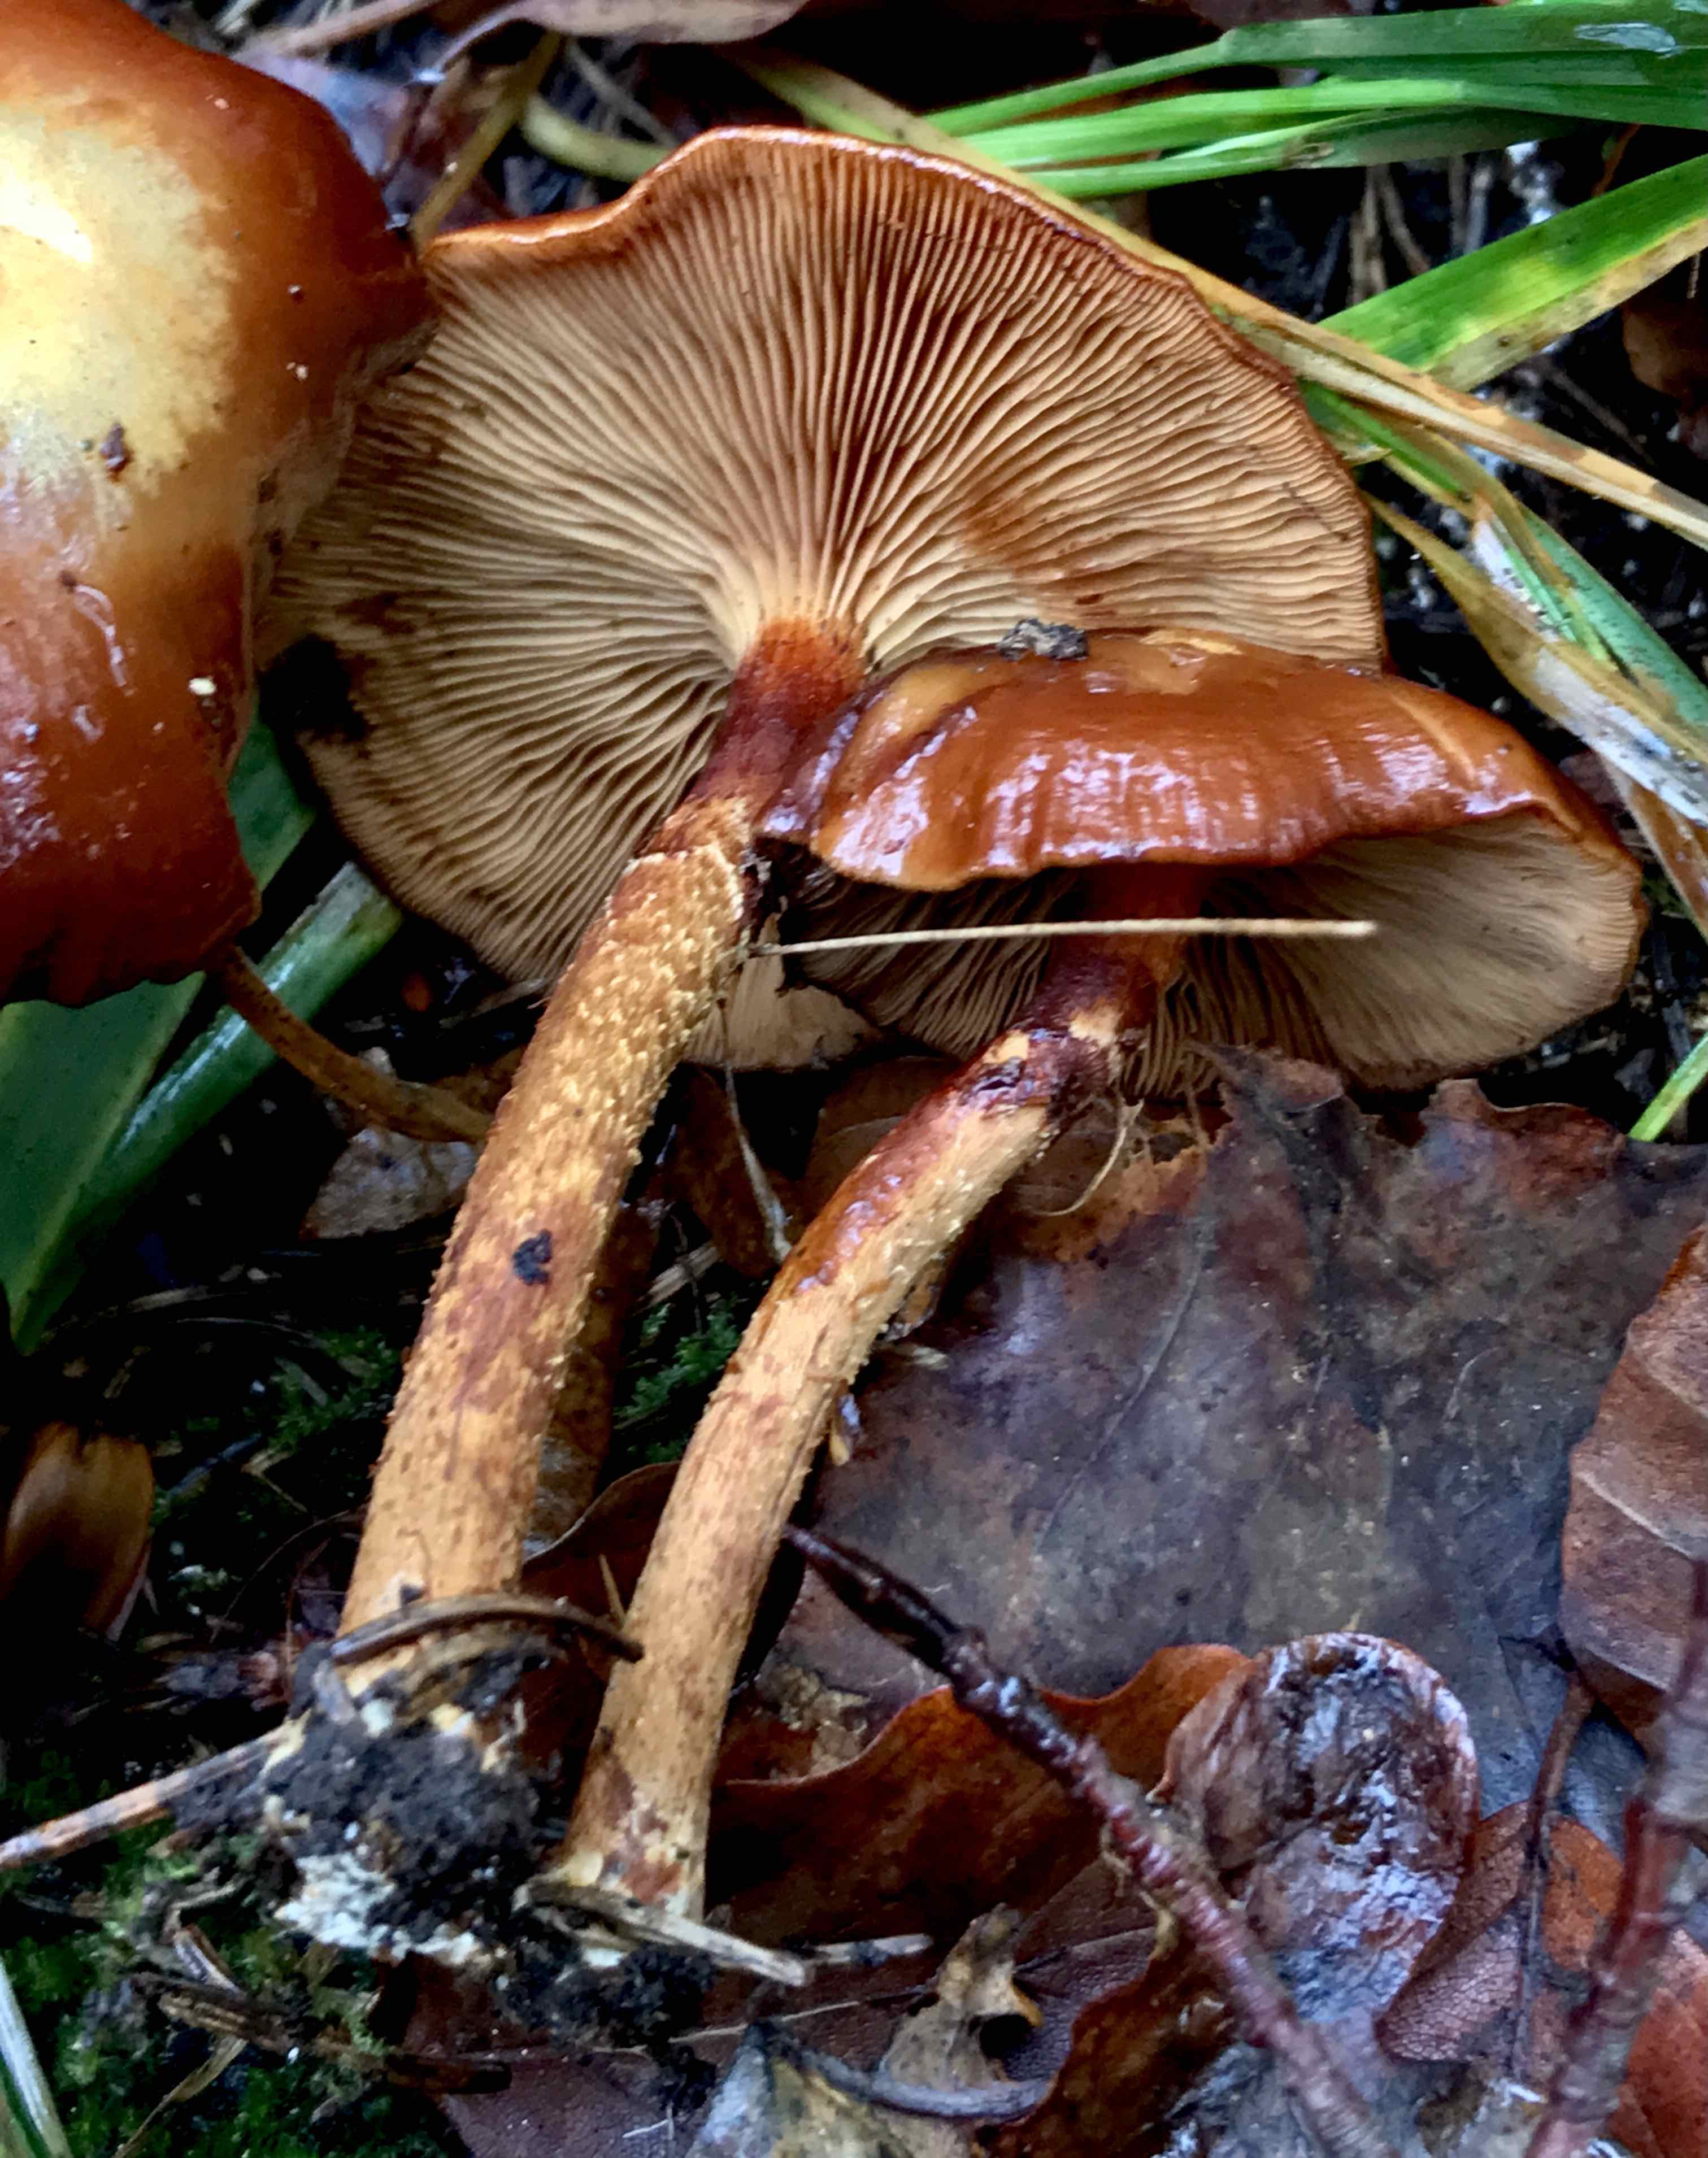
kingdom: Fungi
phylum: Basidiomycota
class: Agaricomycetes
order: Agaricales
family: Strophariaceae
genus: Kuehneromyces
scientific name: Kuehneromyces mutabilis
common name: foranderlig skælhat
